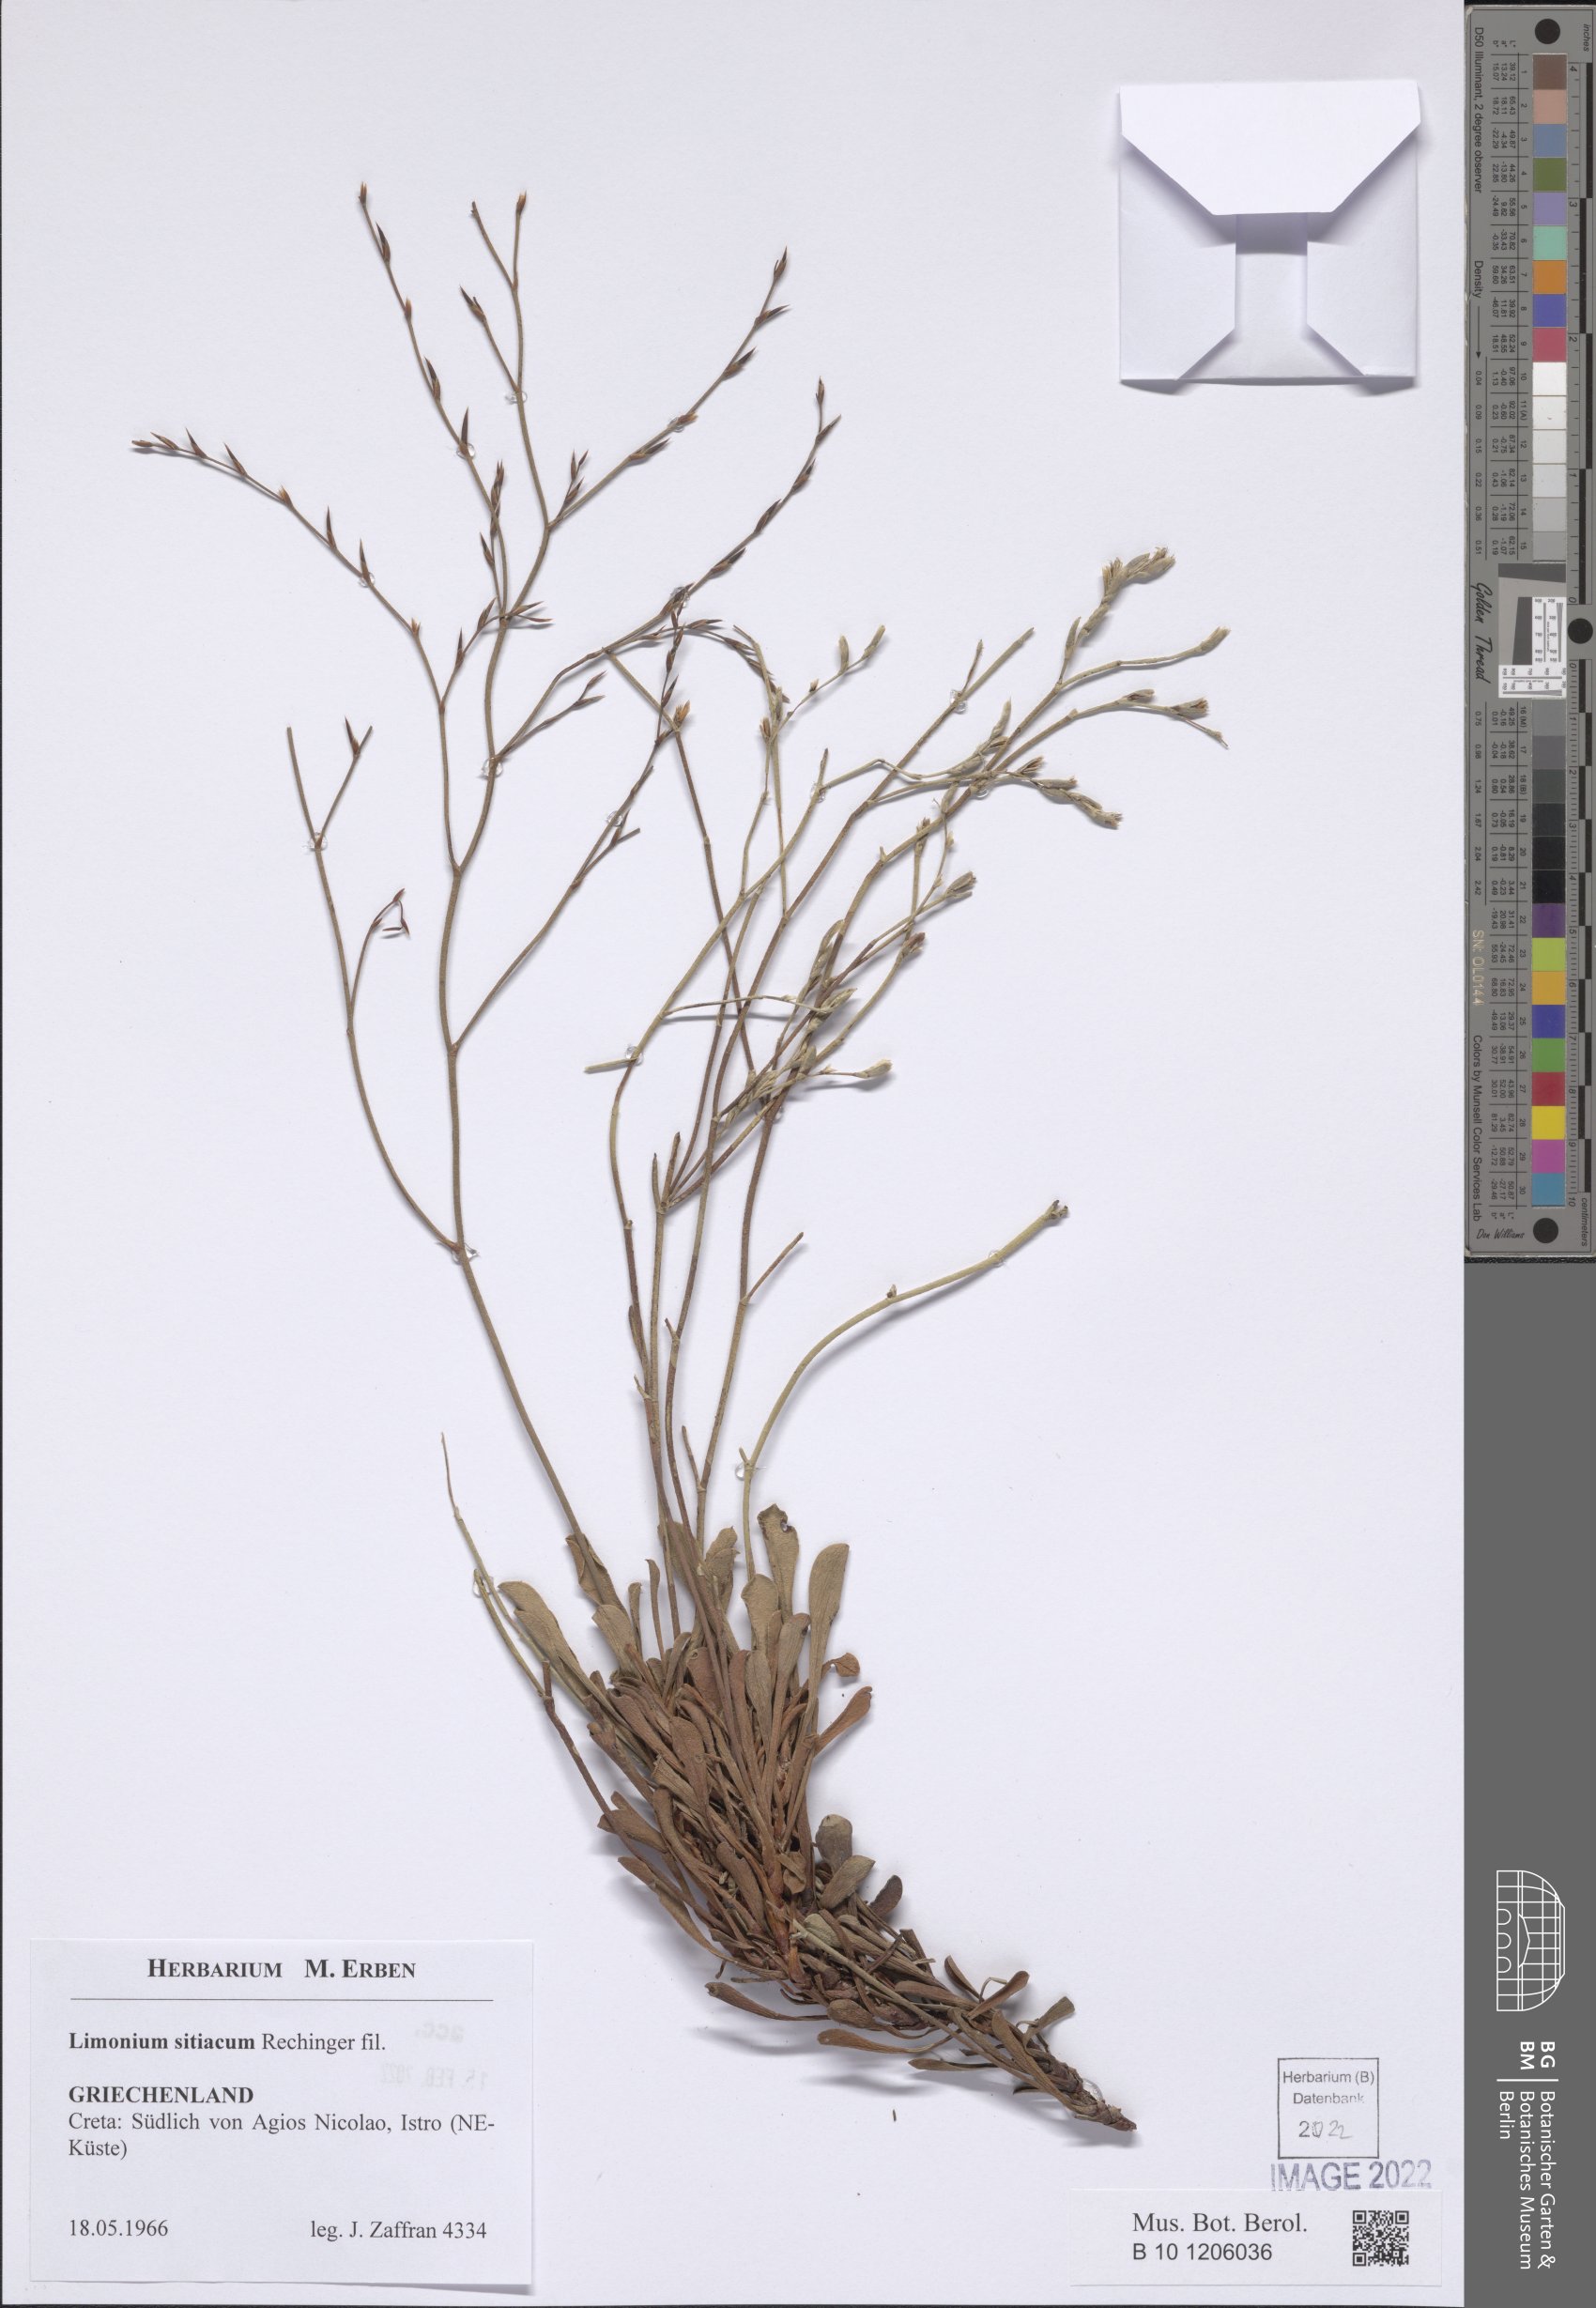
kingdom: Plantae
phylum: Tracheophyta
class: Magnoliopsida
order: Caryophyllales
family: Plumbaginaceae
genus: Limonium
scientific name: Limonium sitiacum
